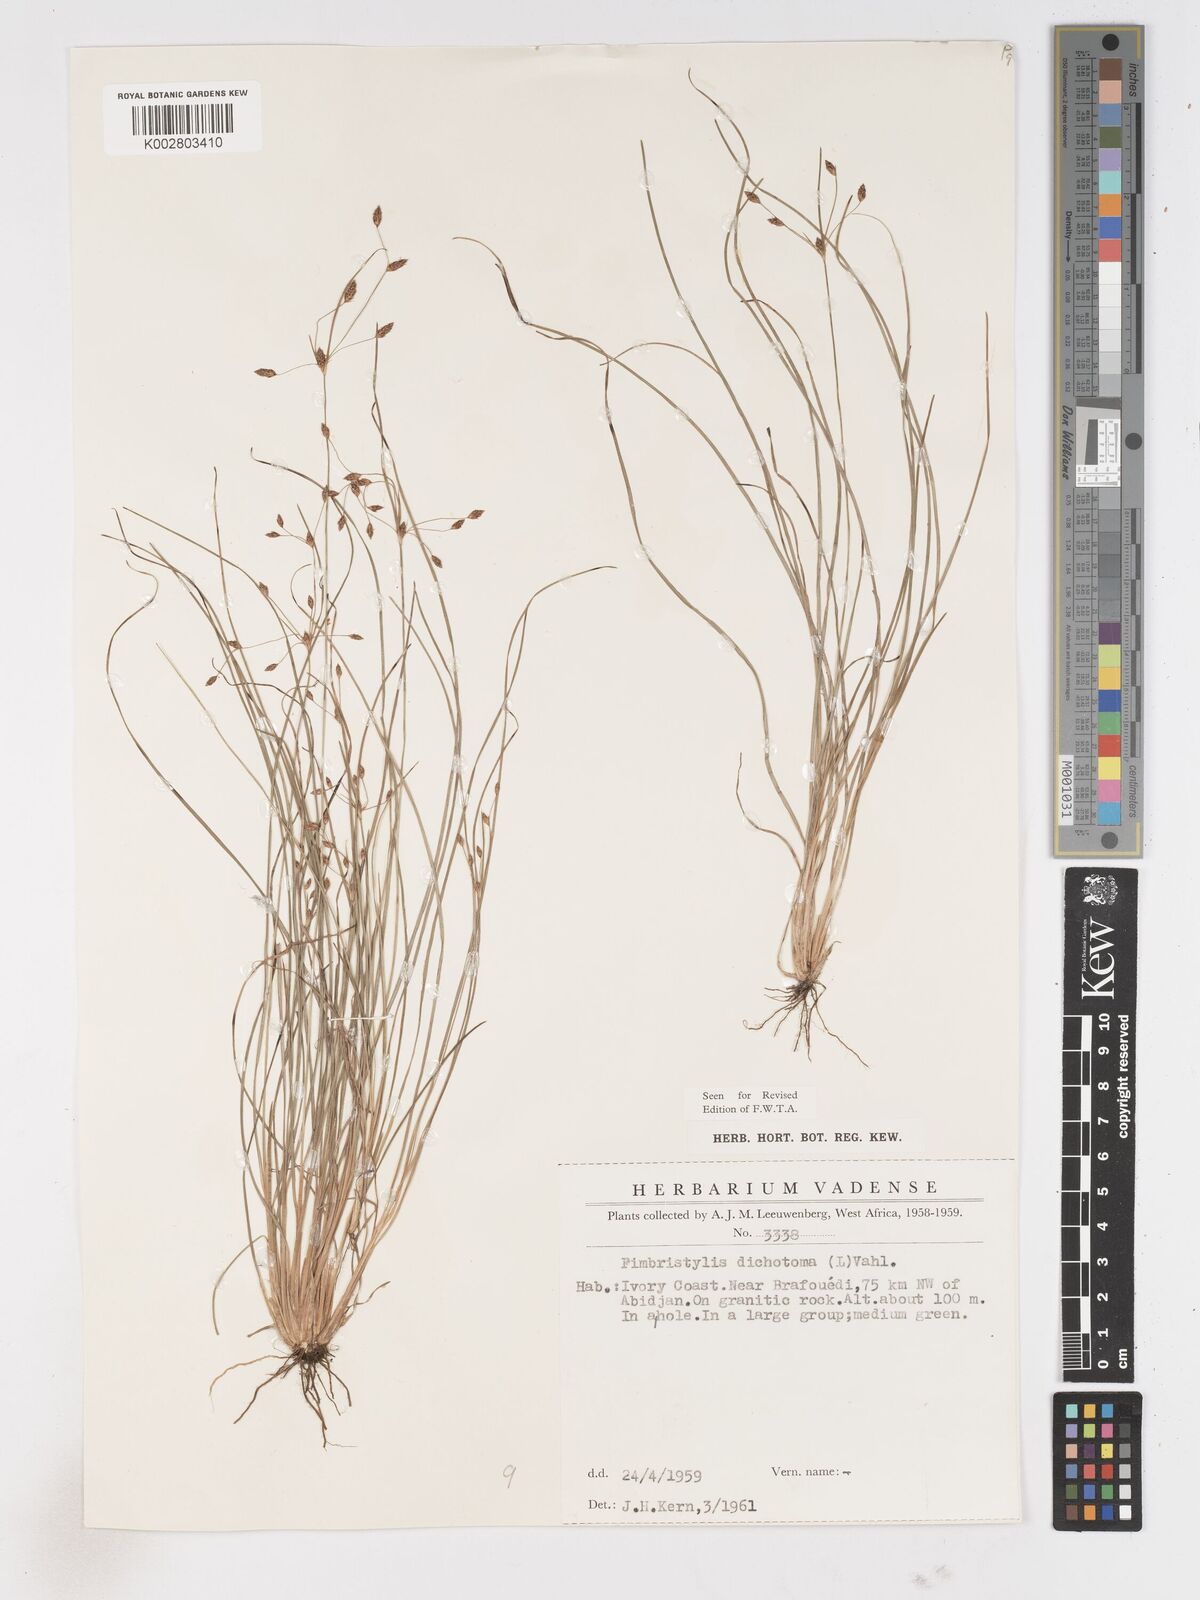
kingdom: Plantae
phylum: Tracheophyta
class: Liliopsida
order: Poales
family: Cyperaceae
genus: Fimbristylis
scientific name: Fimbristylis dichotoma
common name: Forked fimbry
